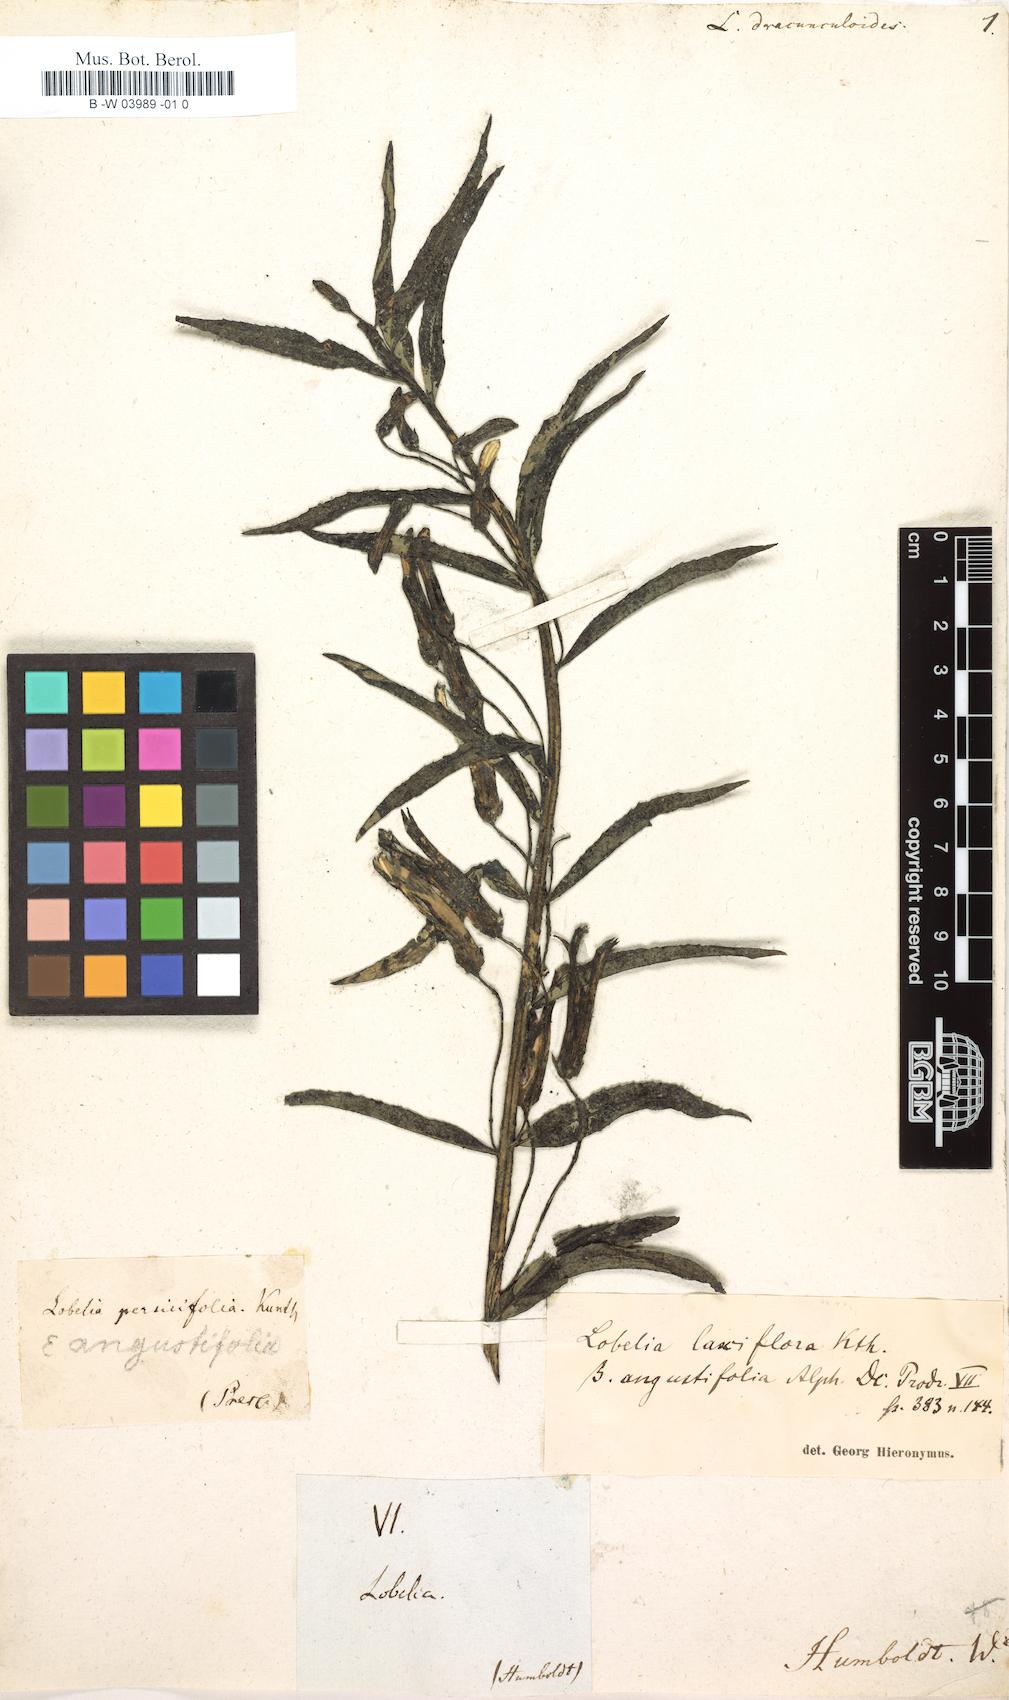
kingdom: Plantae
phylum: Tracheophyta
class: Magnoliopsida
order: Asterales
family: Campanulaceae
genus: Lobelia
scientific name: Lobelia dracunculoides
